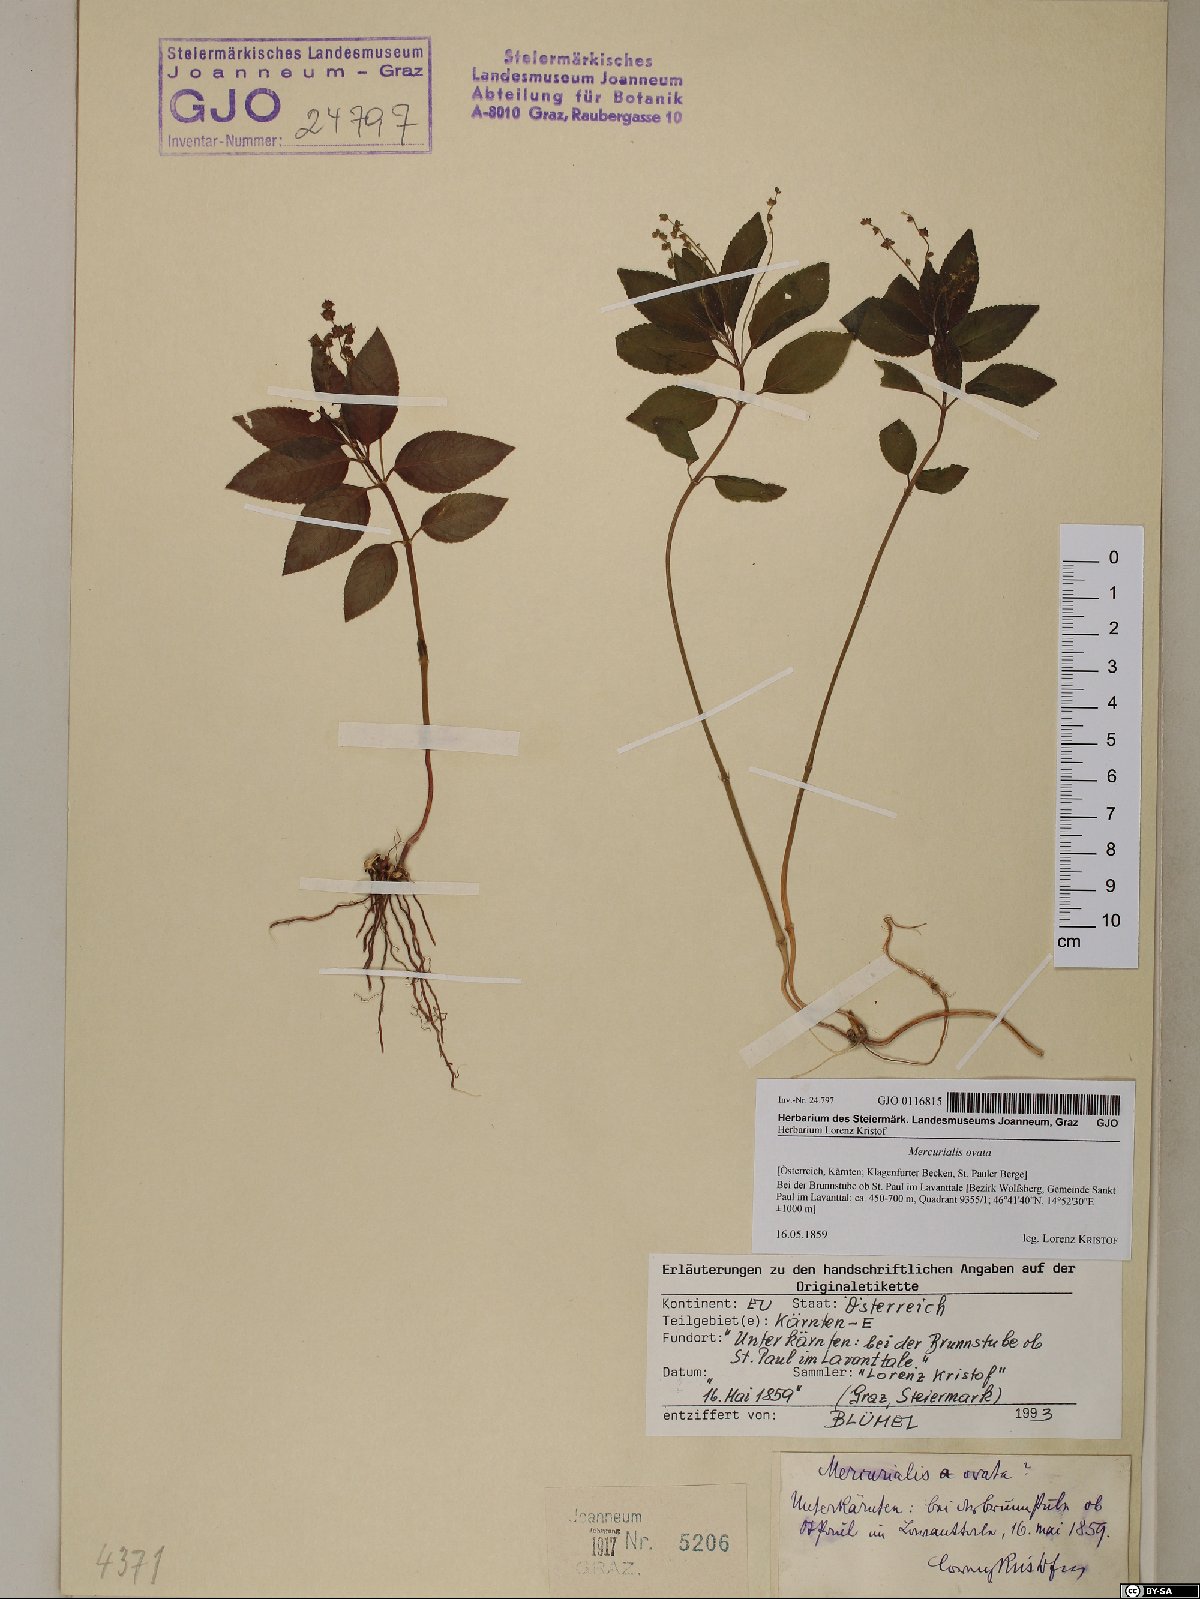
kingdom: Plantae
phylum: Tracheophyta
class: Magnoliopsida
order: Malpighiales
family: Euphorbiaceae
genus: Mercurialis
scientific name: Mercurialis ovata
